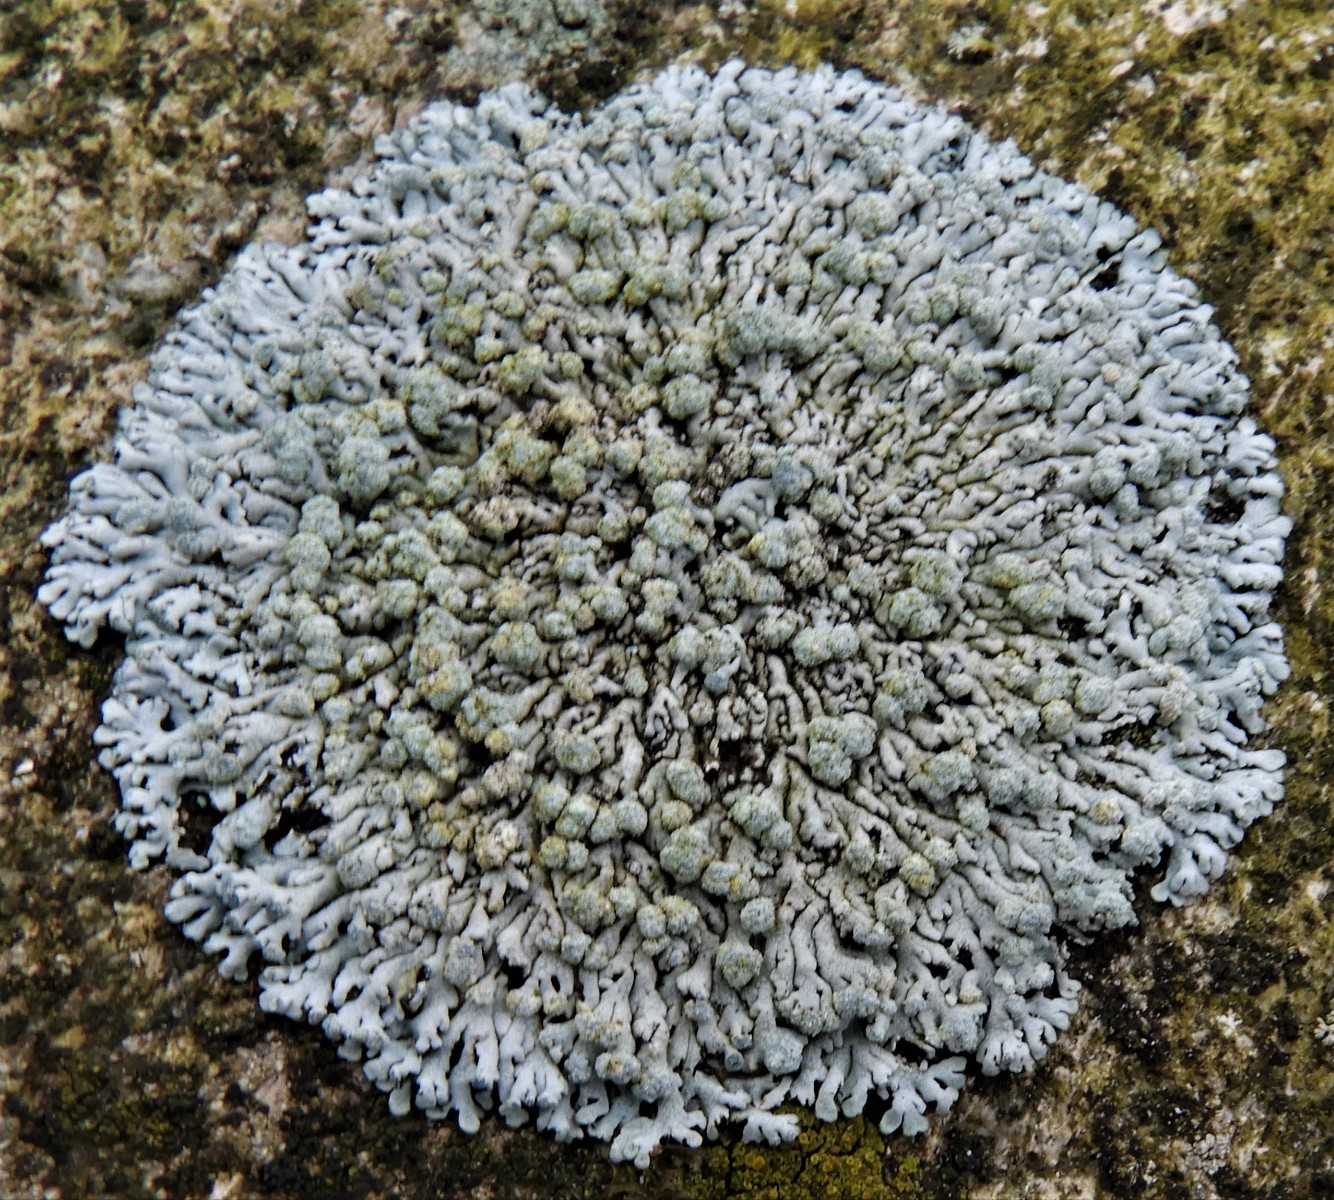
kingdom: Fungi
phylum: Ascomycota
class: Lecanoromycetes
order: Caliciales
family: Physciaceae
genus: Physcia
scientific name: Physcia caesia
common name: blågrå rosetlav
